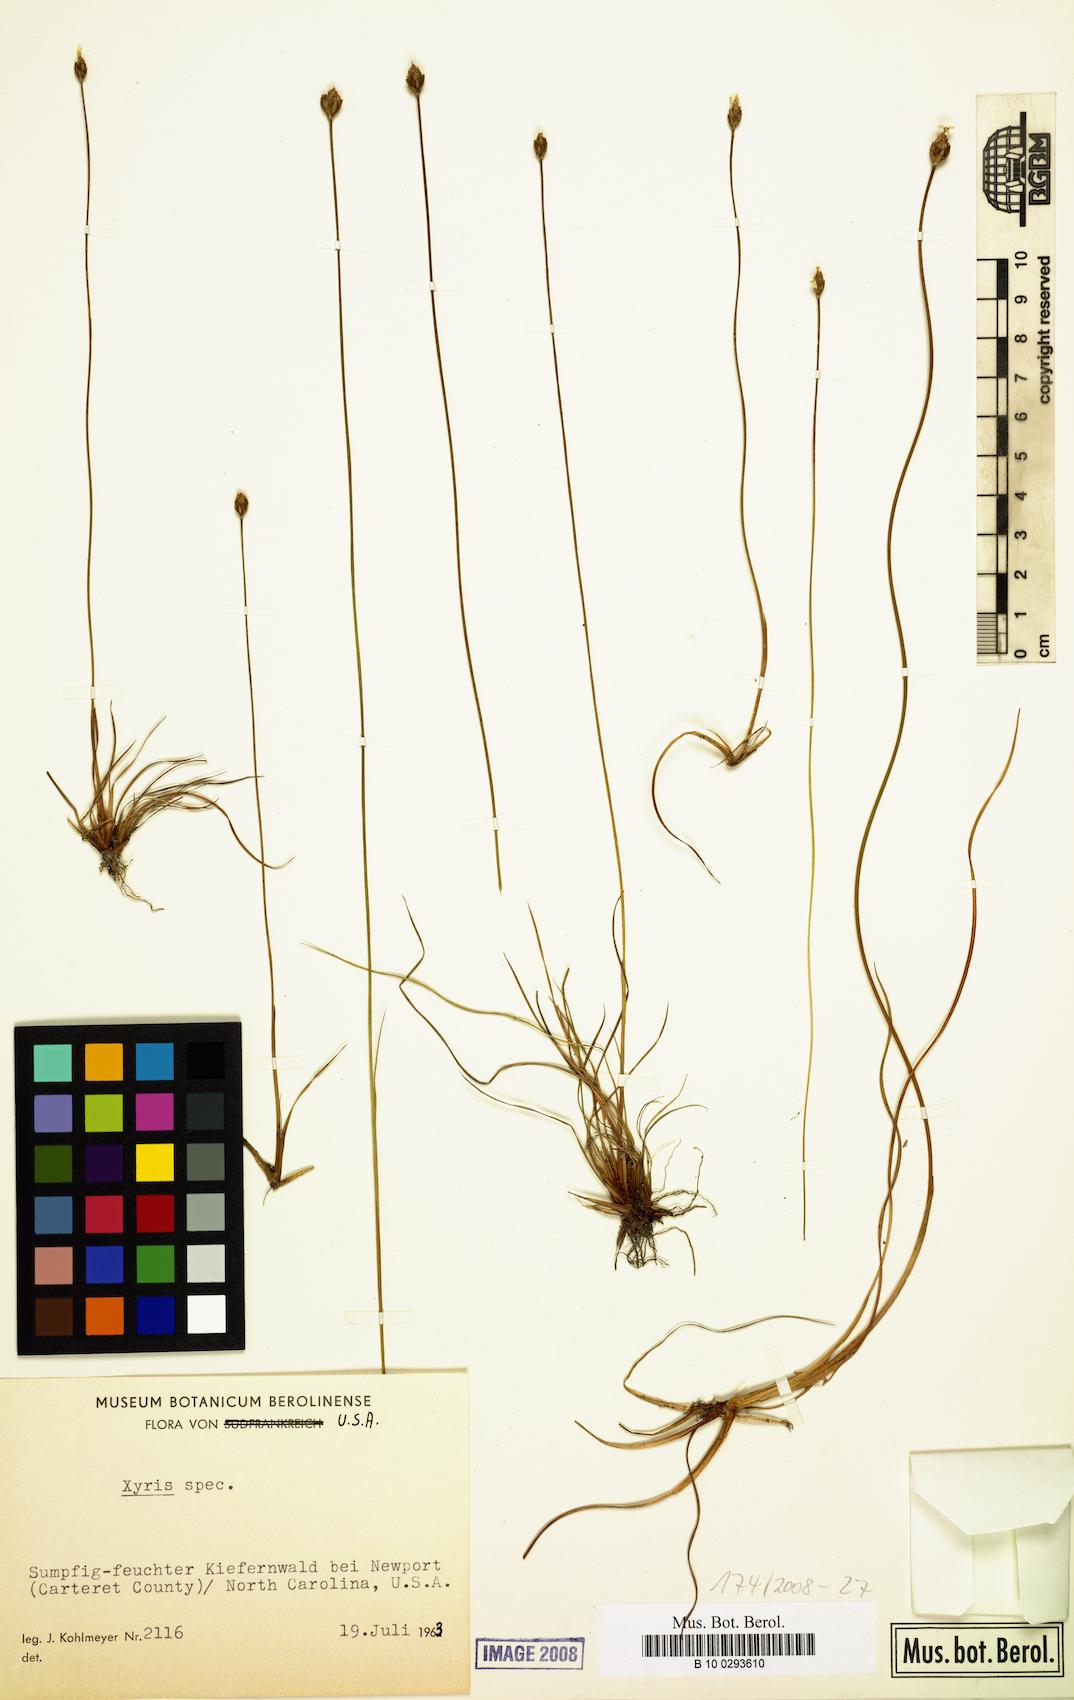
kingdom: Plantae
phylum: Tracheophyta
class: Liliopsida
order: Poales
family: Xyridaceae
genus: Xyris
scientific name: Xyris
